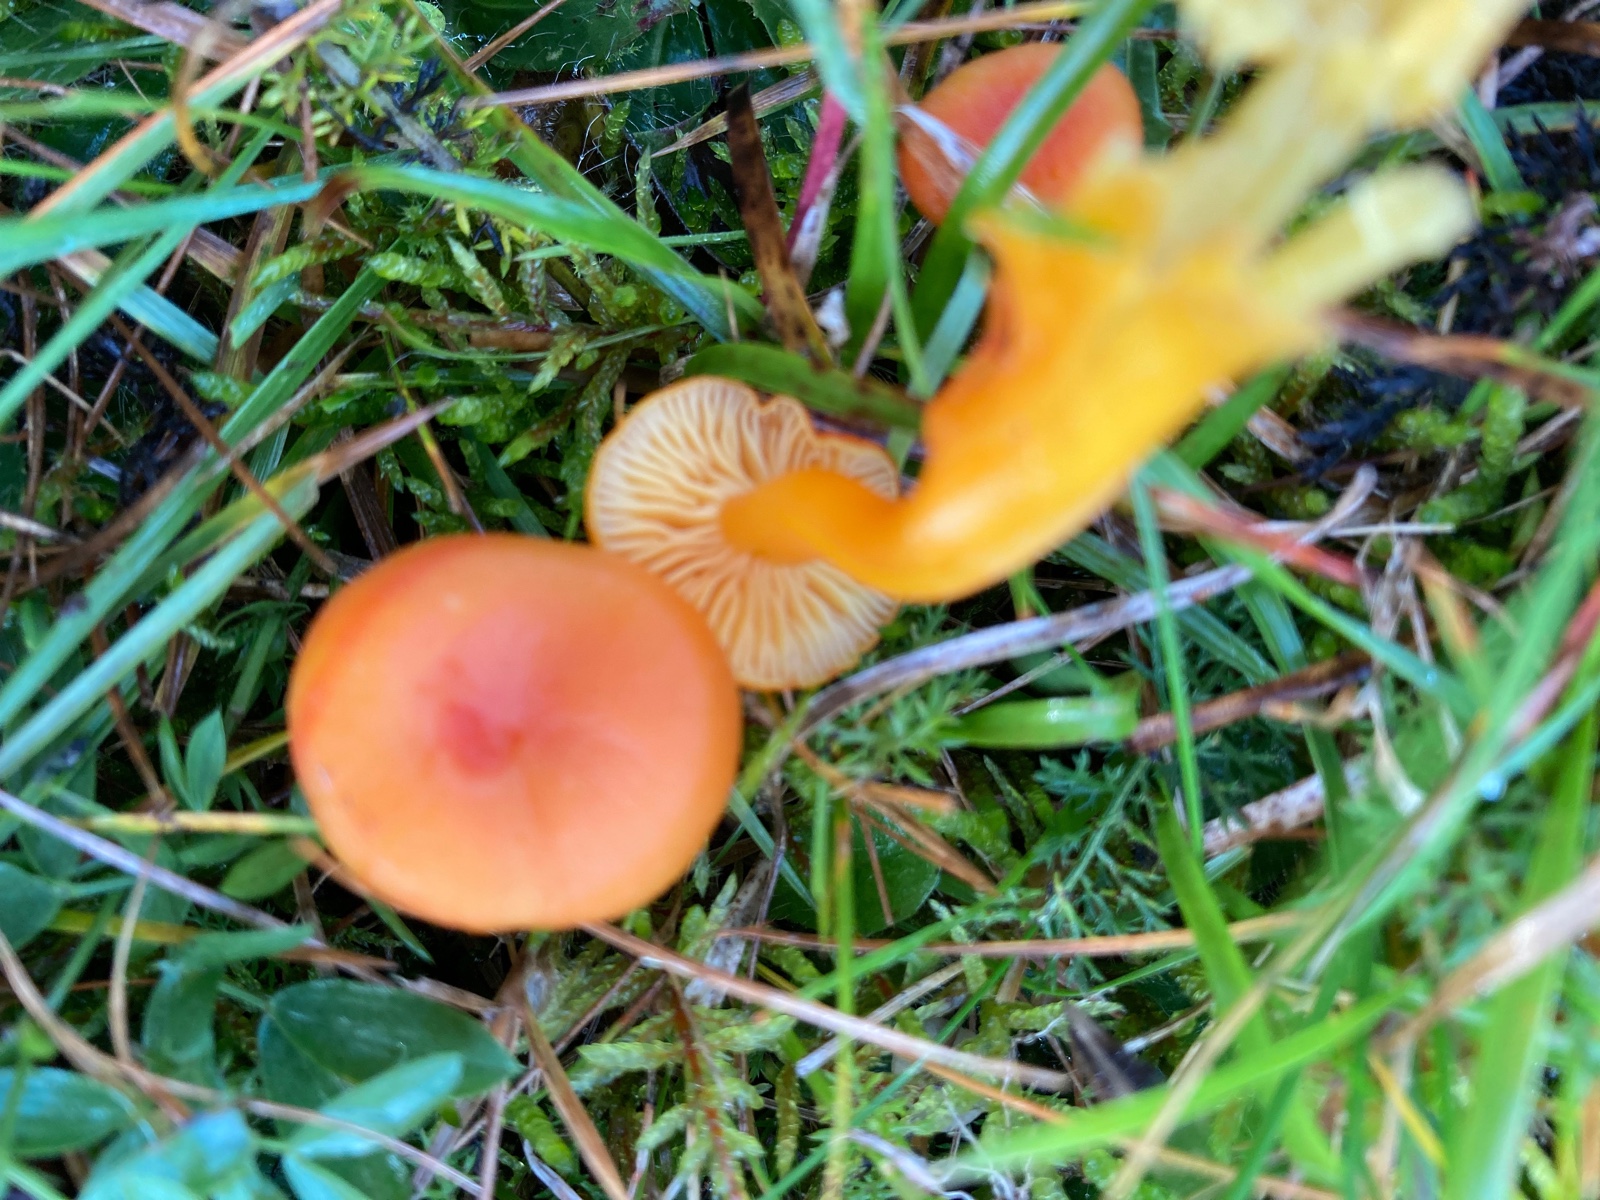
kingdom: Fungi
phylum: Basidiomycota
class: Agaricomycetes
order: Agaricales
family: Hygrophoraceae
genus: Hygrocybe
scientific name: Hygrocybe miniata
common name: mønje-vokshat
